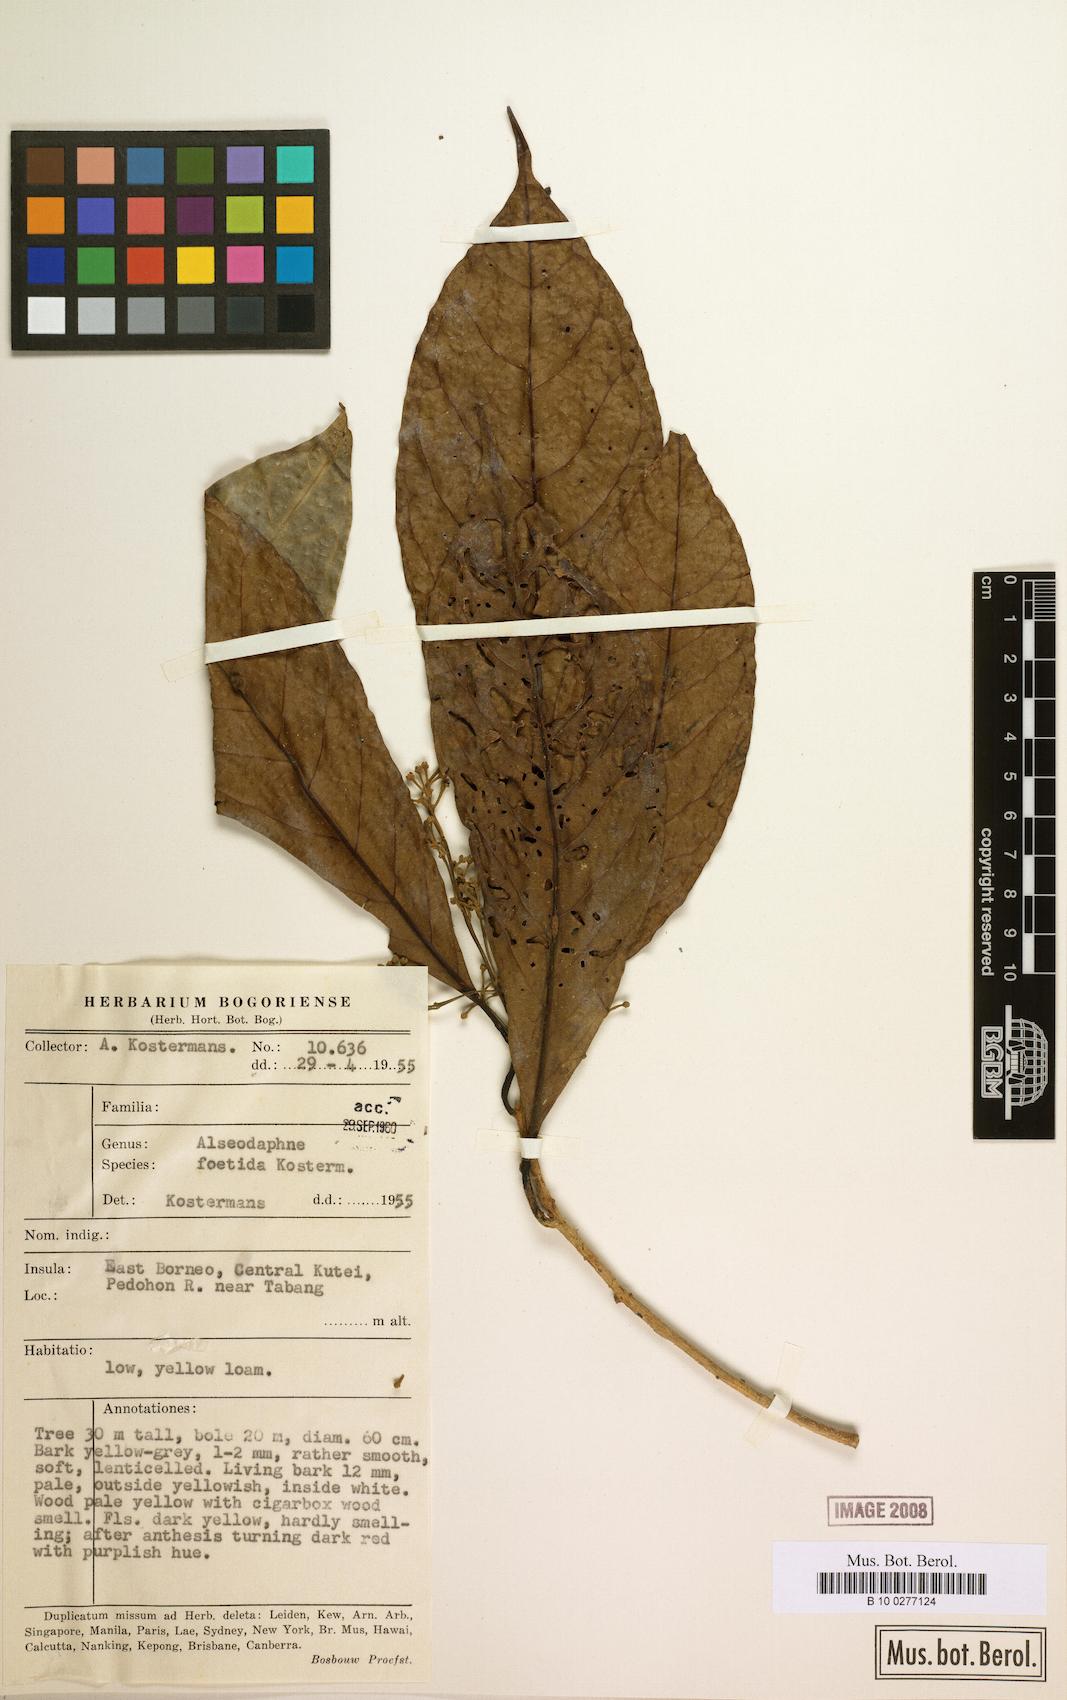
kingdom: Plantae
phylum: Tracheophyta
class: Magnoliopsida
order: Laurales
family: Lauraceae
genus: Nothaphoebe
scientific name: Nothaphoebe foetida
